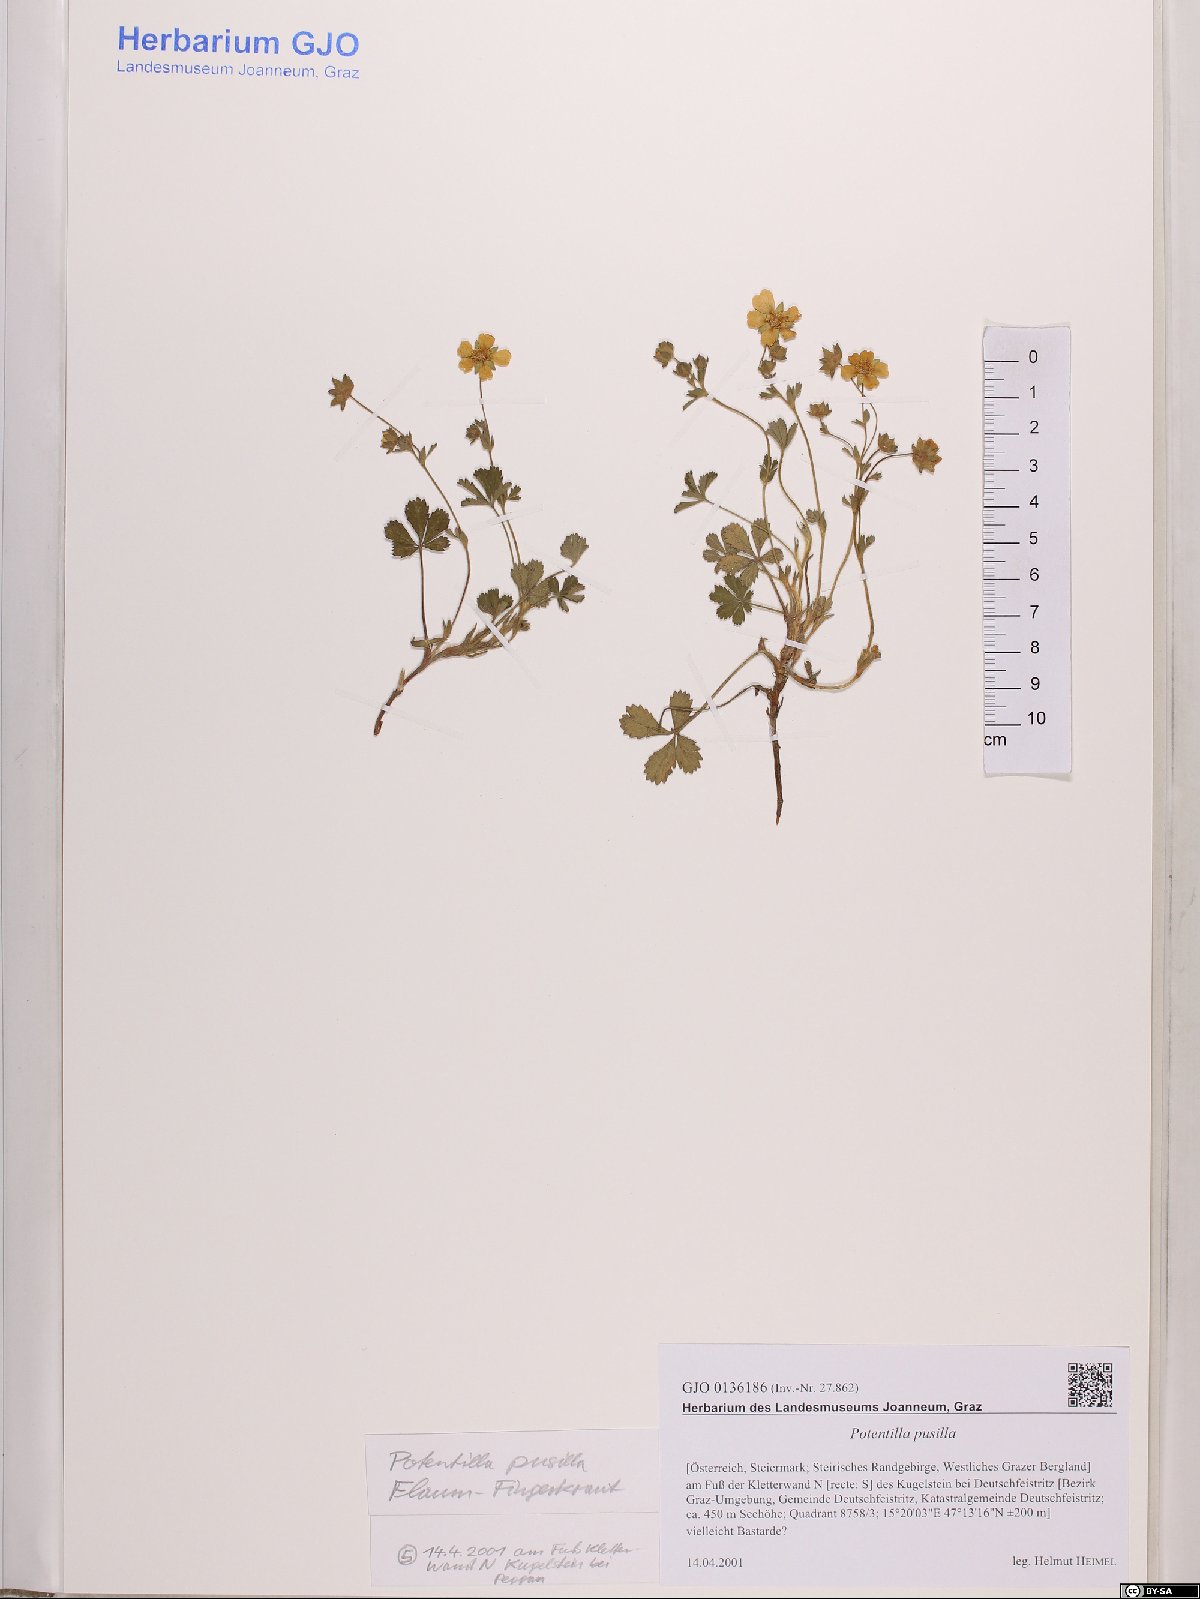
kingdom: Plantae
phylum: Tracheophyta
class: Magnoliopsida
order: Rosales
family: Rosaceae
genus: Potentilla
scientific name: Potentilla pusilla
